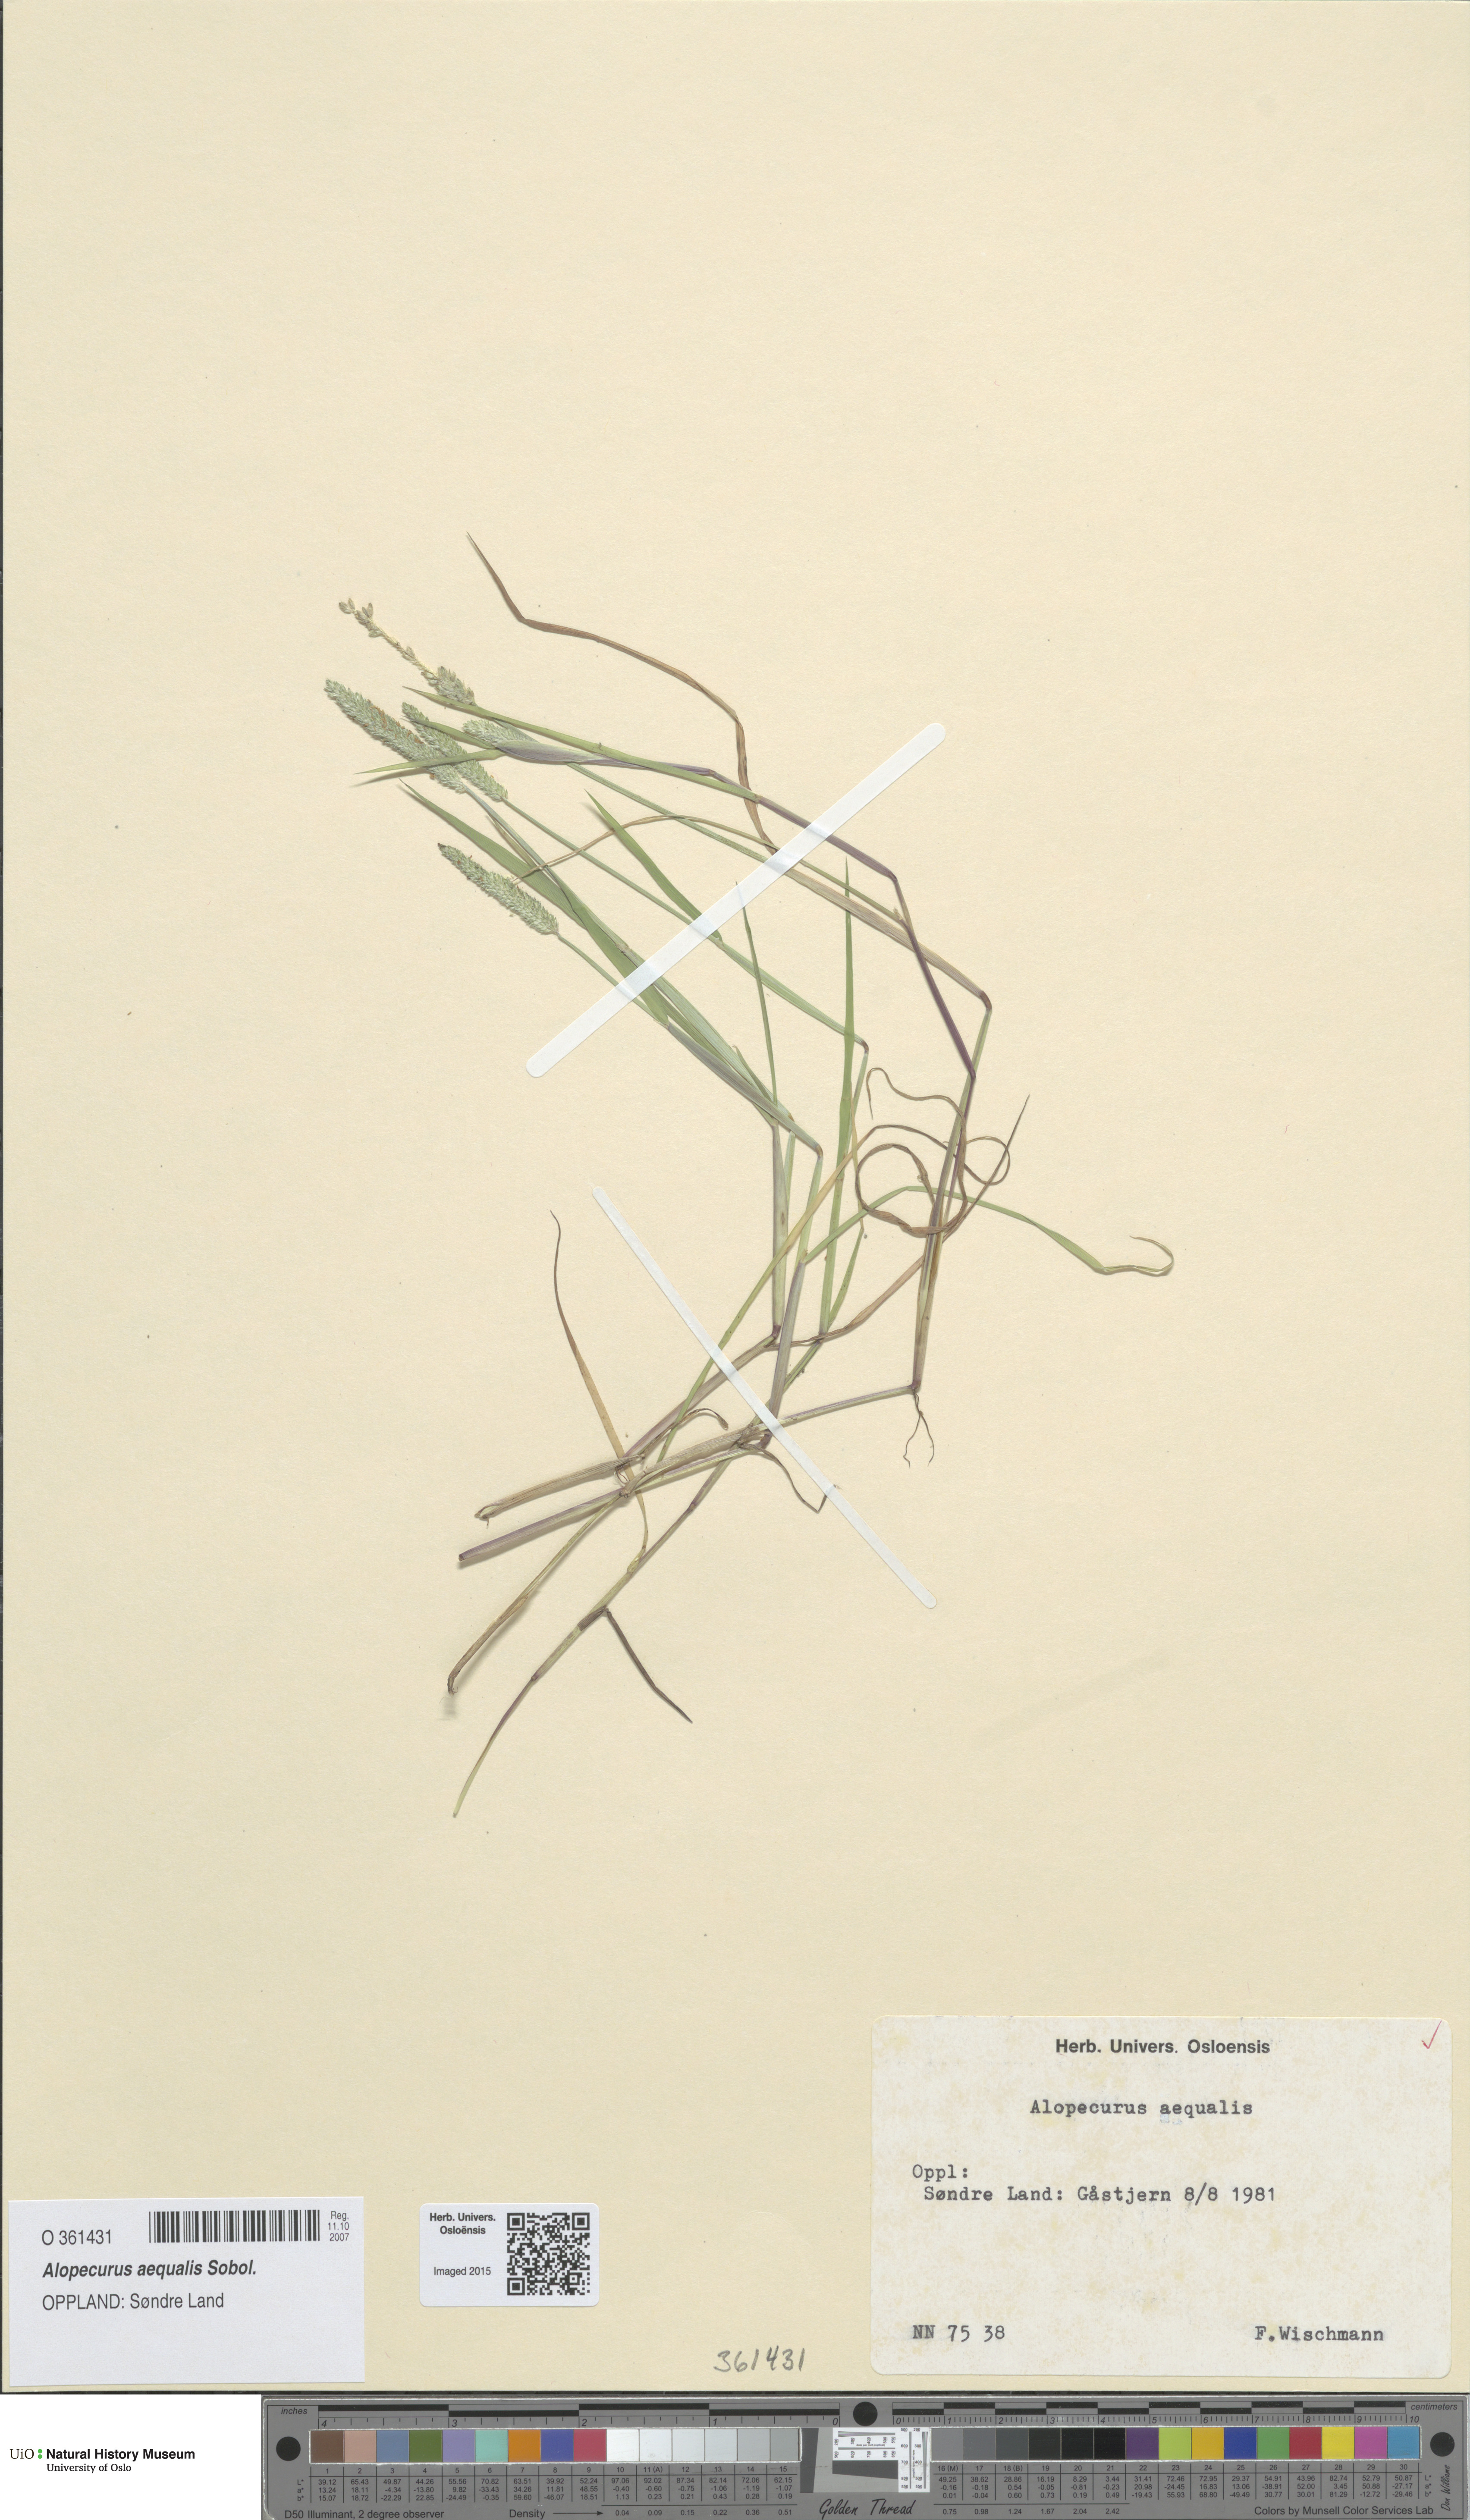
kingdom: Plantae
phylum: Tracheophyta
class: Liliopsida
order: Poales
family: Poaceae
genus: Alopecurus
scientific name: Alopecurus aequalis
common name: Orange foxtail
